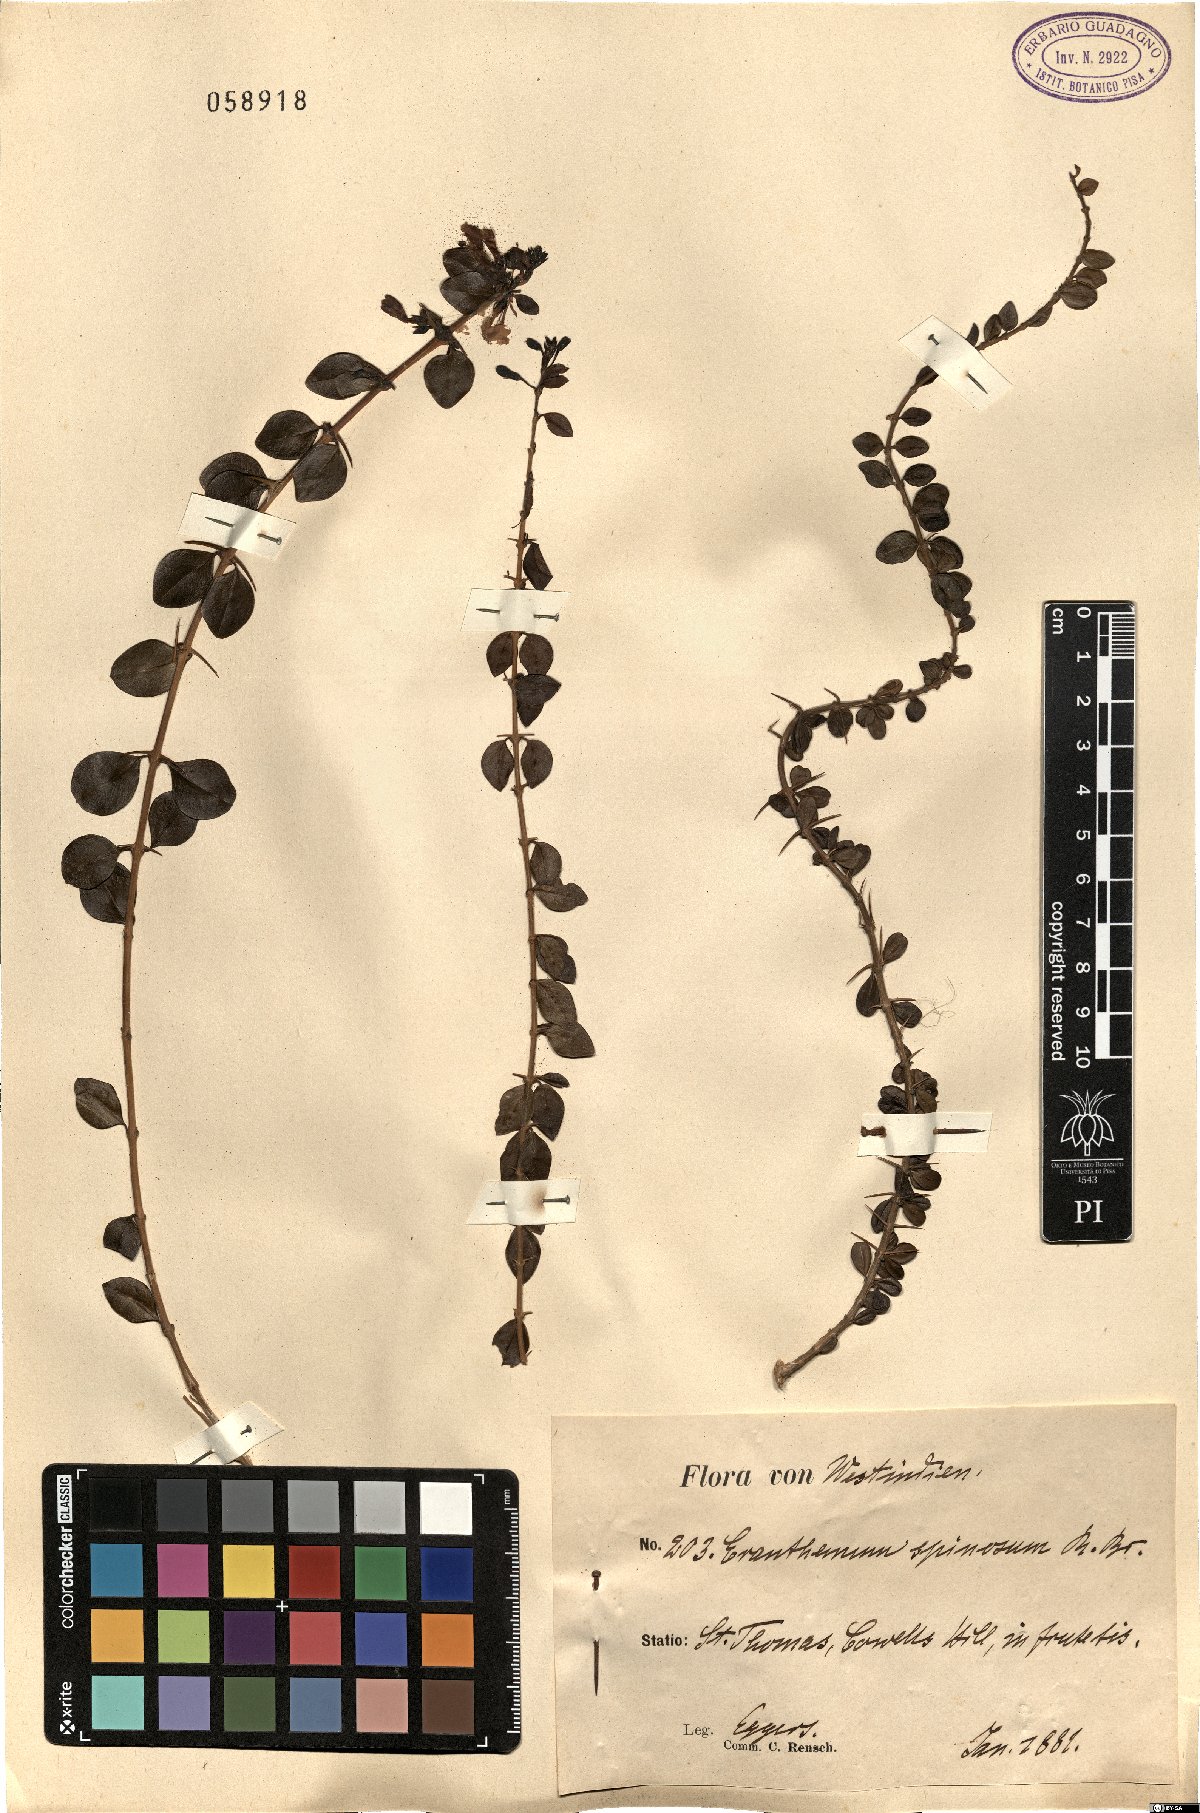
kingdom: Plantae
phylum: Tracheophyta
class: Magnoliopsida
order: Lamiales
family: Acanthaceae
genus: Oplonia
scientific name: Oplonia spinosa
